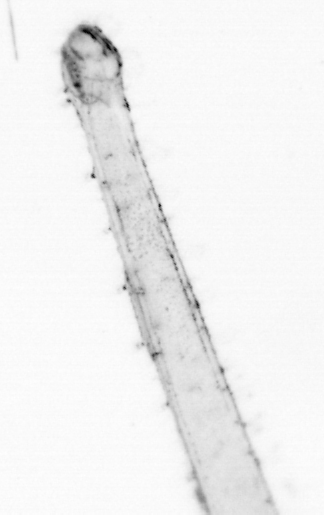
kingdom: Animalia
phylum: Chaetognatha
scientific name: Chaetognatha
